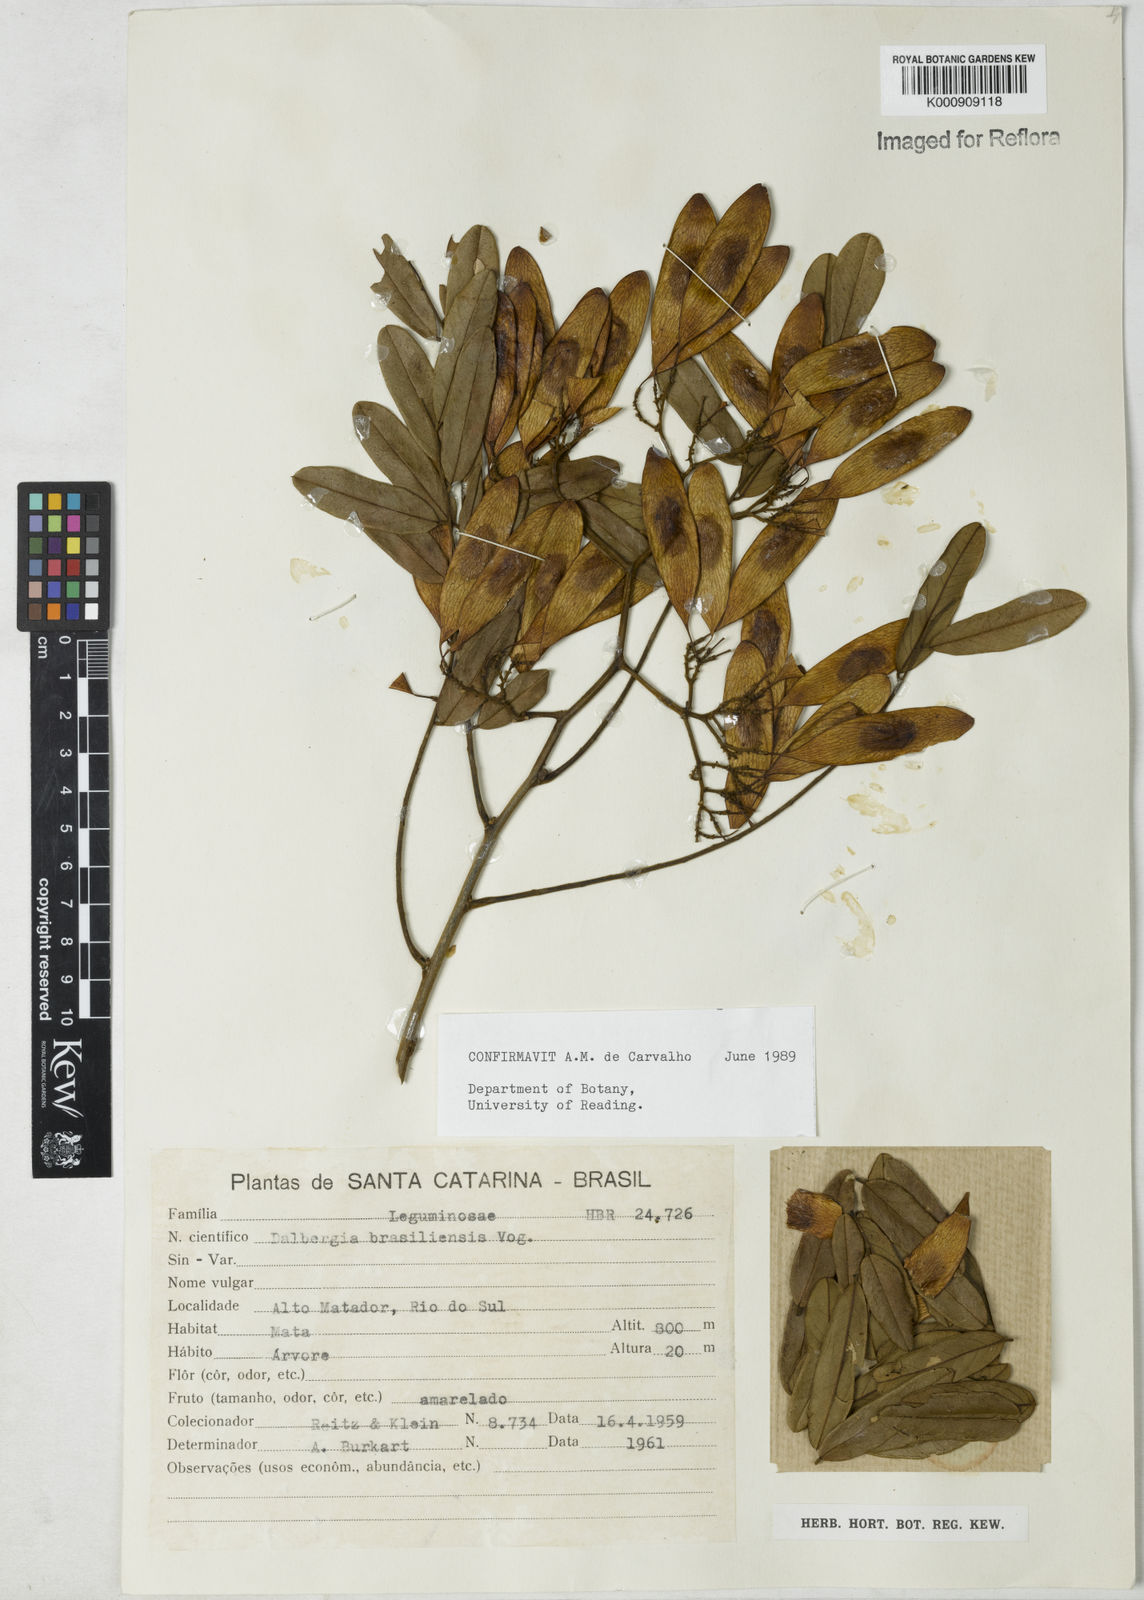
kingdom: Plantae
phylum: Tracheophyta
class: Magnoliopsida
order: Fabales
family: Fabaceae
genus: Dalbergia
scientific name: Dalbergia brasiliensis
